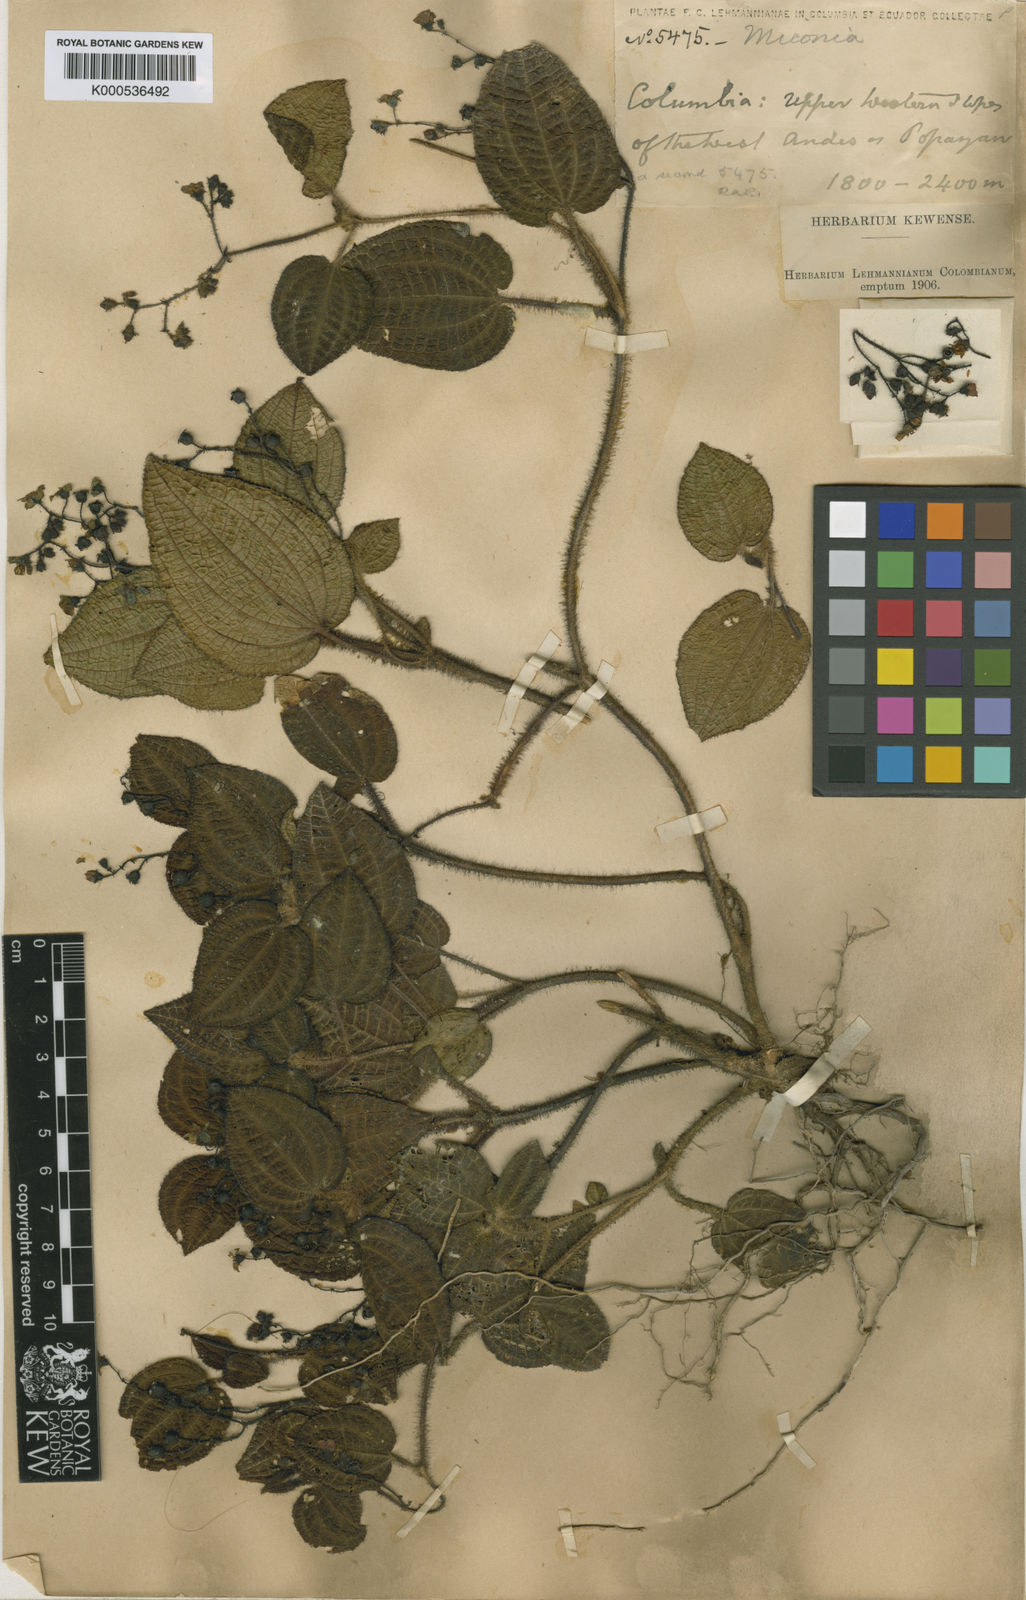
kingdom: Plantae
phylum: Tracheophyta
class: Magnoliopsida
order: Myrtales
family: Melastomataceae
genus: Miconia
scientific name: Miconia nigripes
